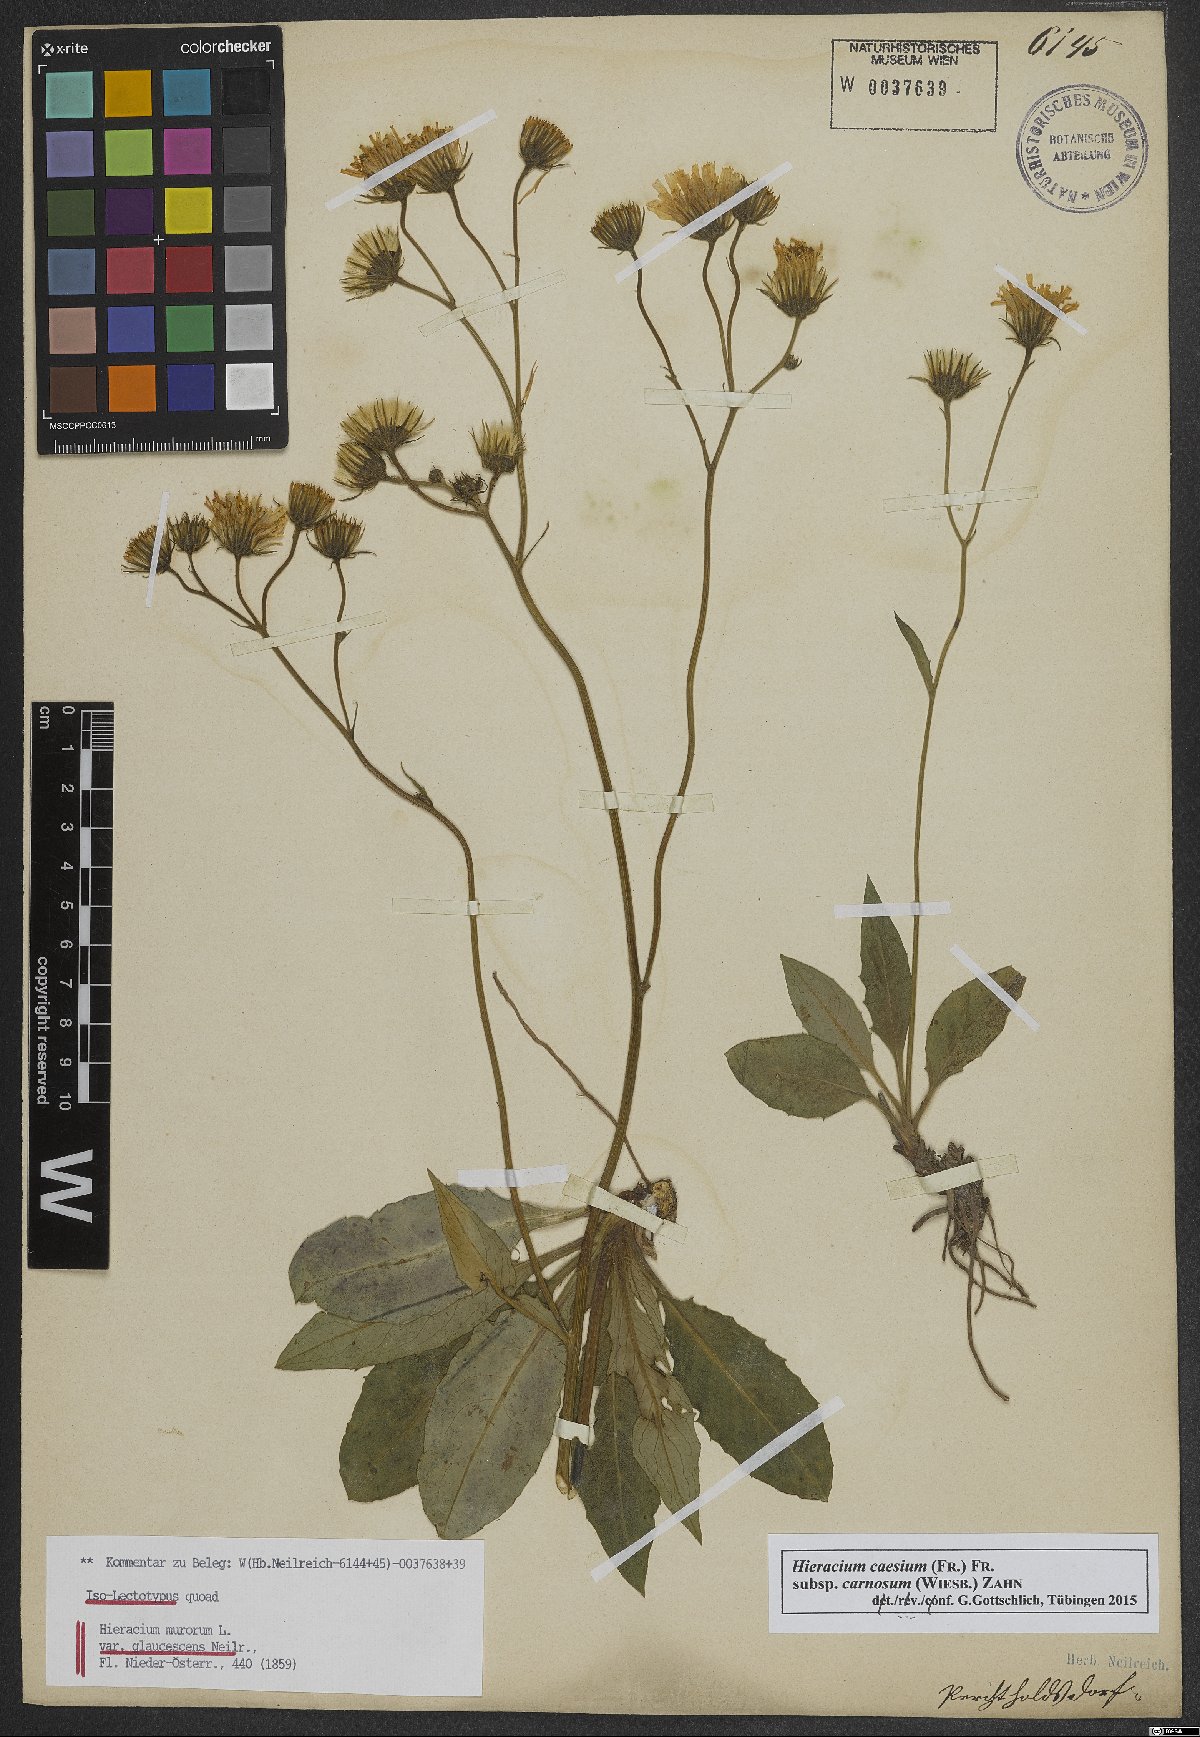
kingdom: Plantae
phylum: Tracheophyta
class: Magnoliopsida
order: Asterales
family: Asteraceae
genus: Hieracium
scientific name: Hieracium caesium
